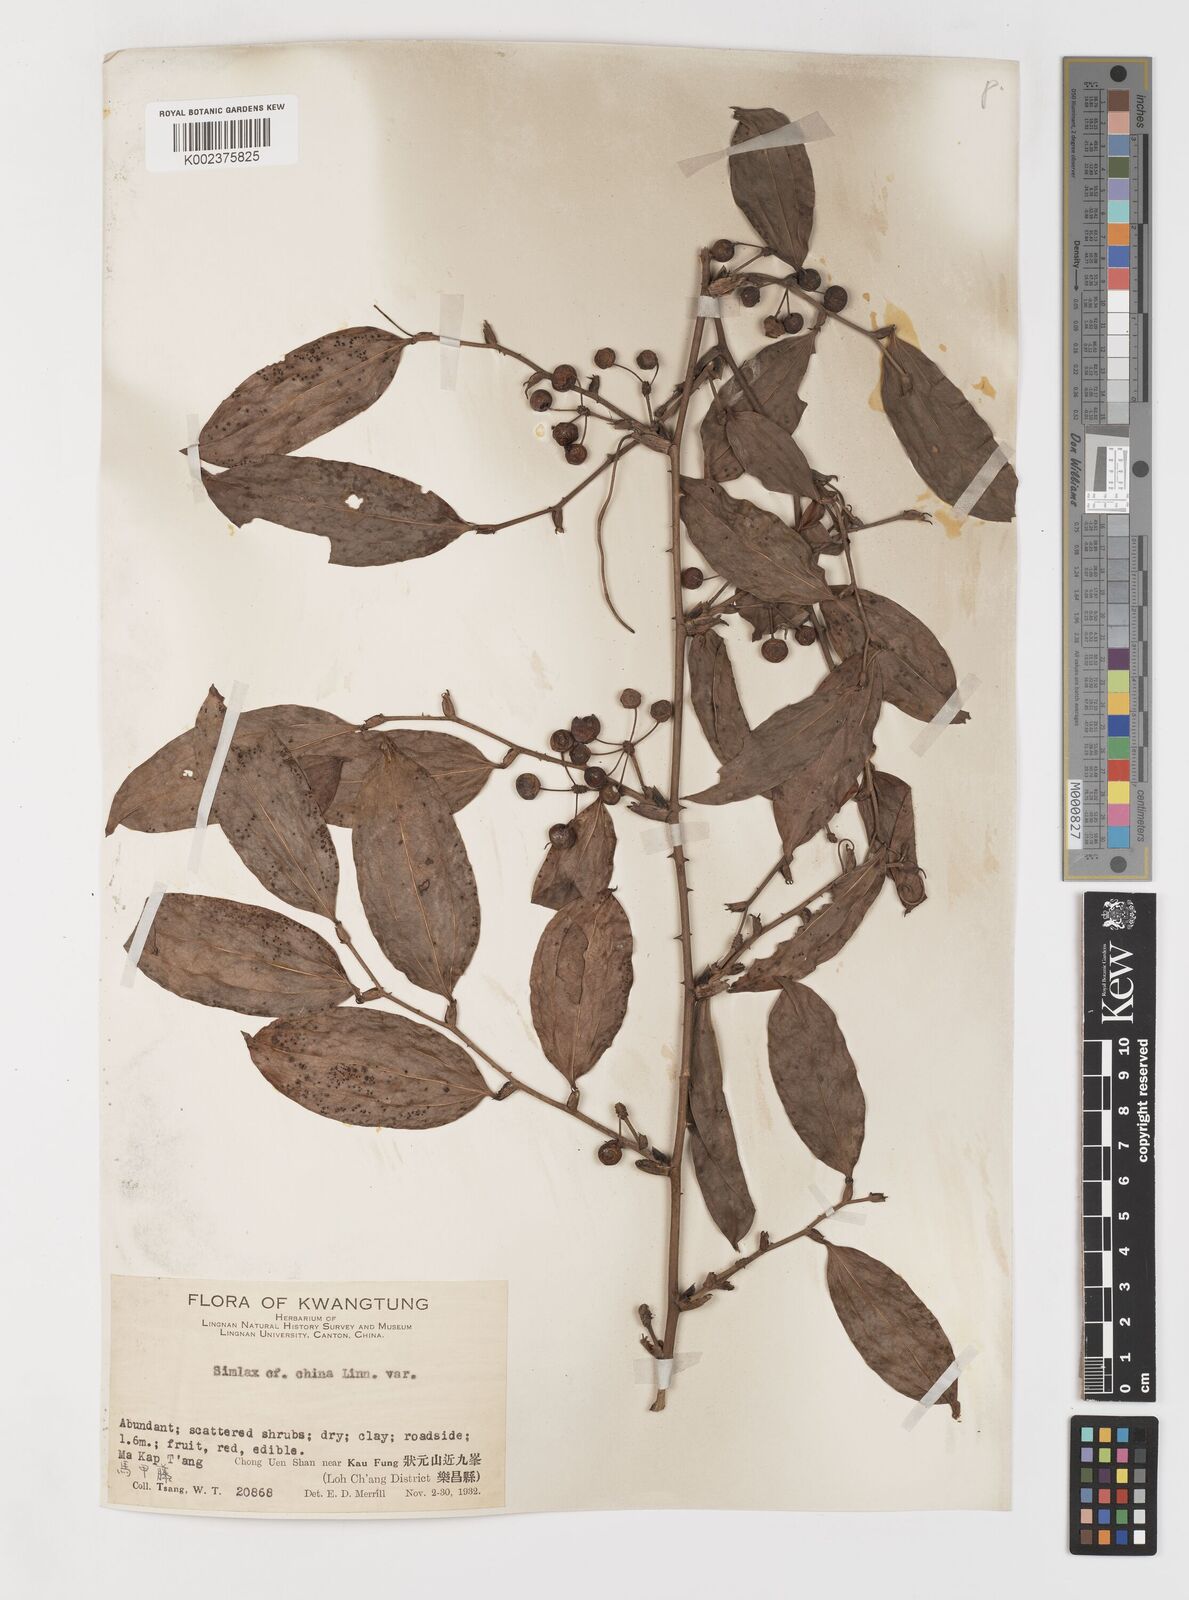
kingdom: Plantae
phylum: Tracheophyta
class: Liliopsida
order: Liliales
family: Smilacaceae
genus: Smilax
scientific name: Smilax china
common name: Chinaroot
